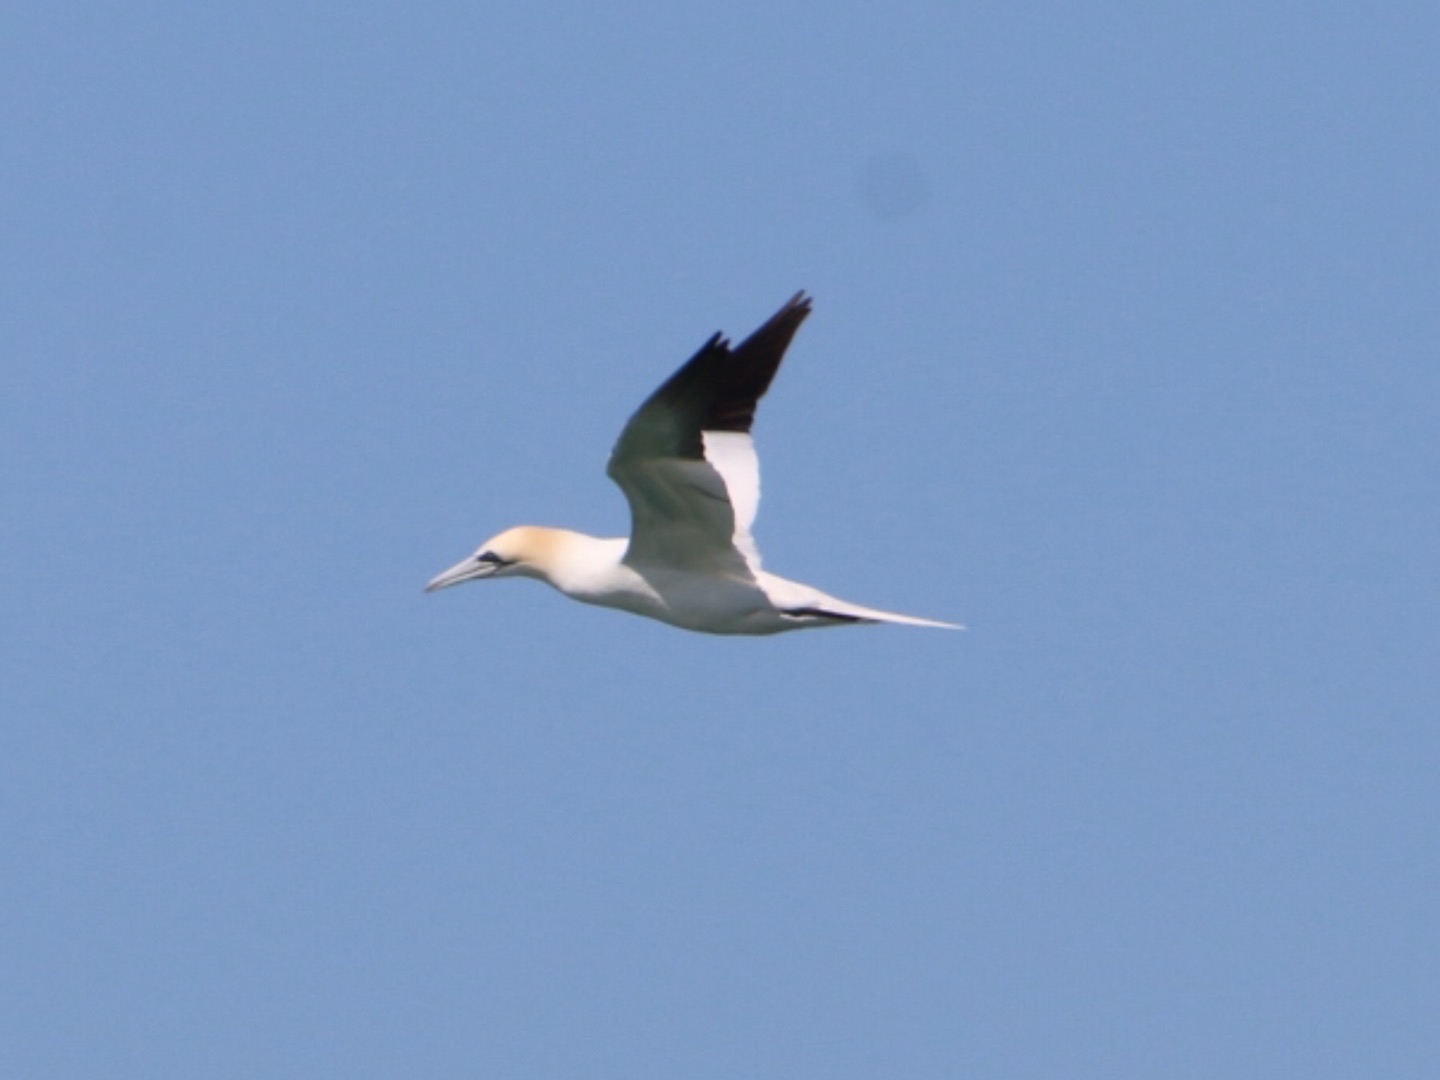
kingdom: Animalia
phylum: Chordata
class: Aves
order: Suliformes
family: Sulidae
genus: Morus
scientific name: Morus bassanus
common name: Sule
